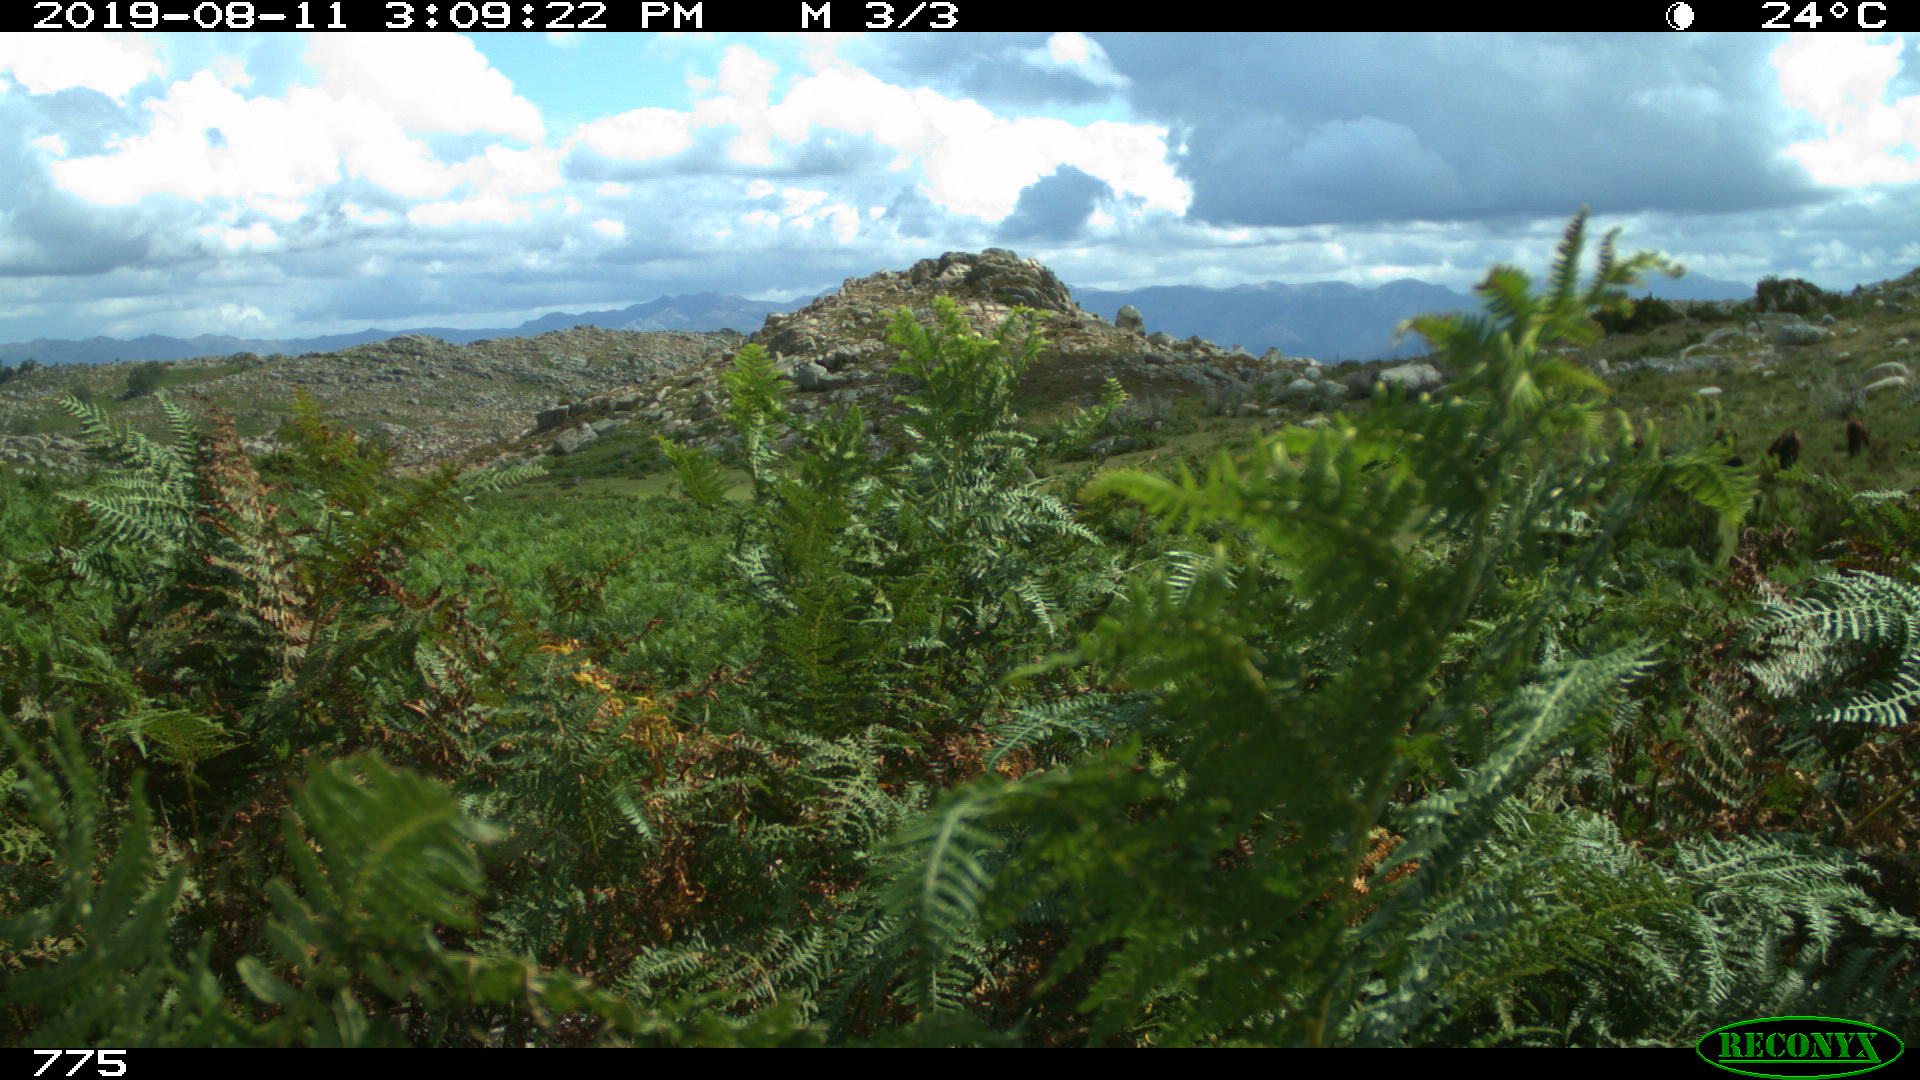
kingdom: Animalia
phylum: Chordata
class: Mammalia
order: Perissodactyla
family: Equidae
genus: Equus
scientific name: Equus caballus
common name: Horse
